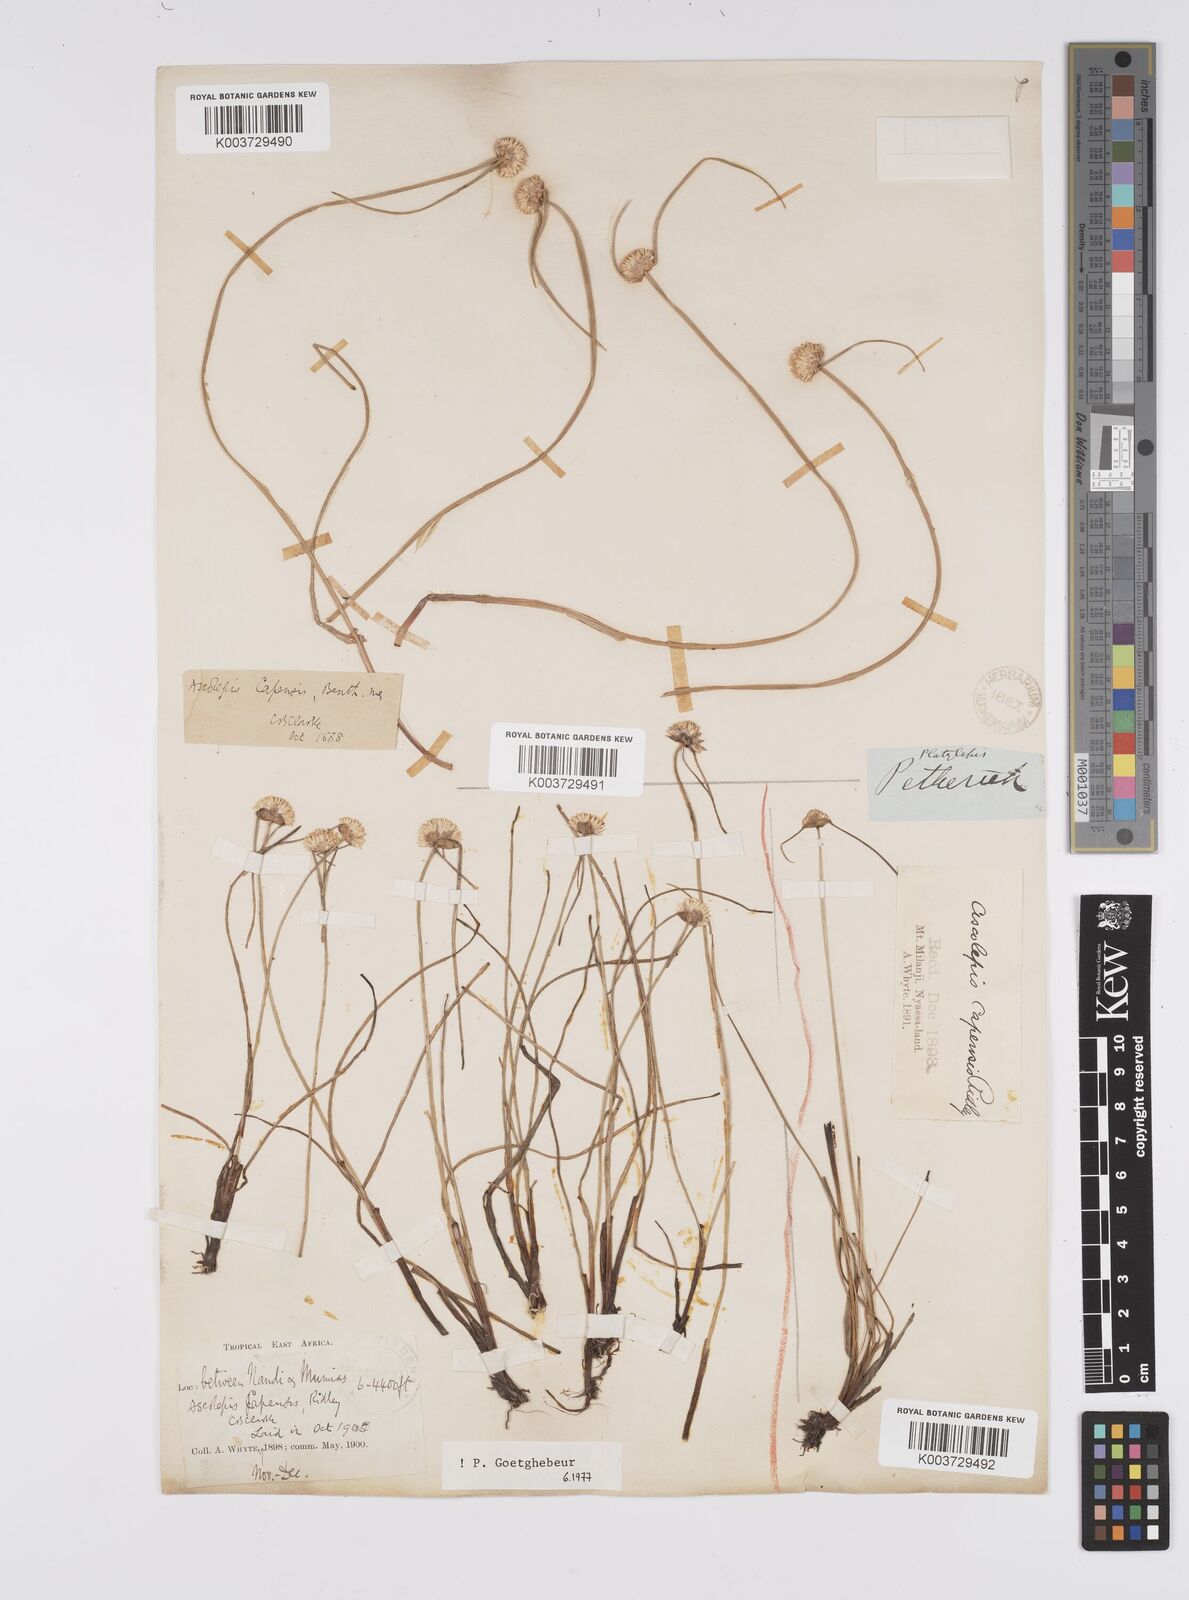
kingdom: Plantae
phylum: Tracheophyta
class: Liliopsida
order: Poales
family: Cyperaceae
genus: Cyperus
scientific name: Cyperus
